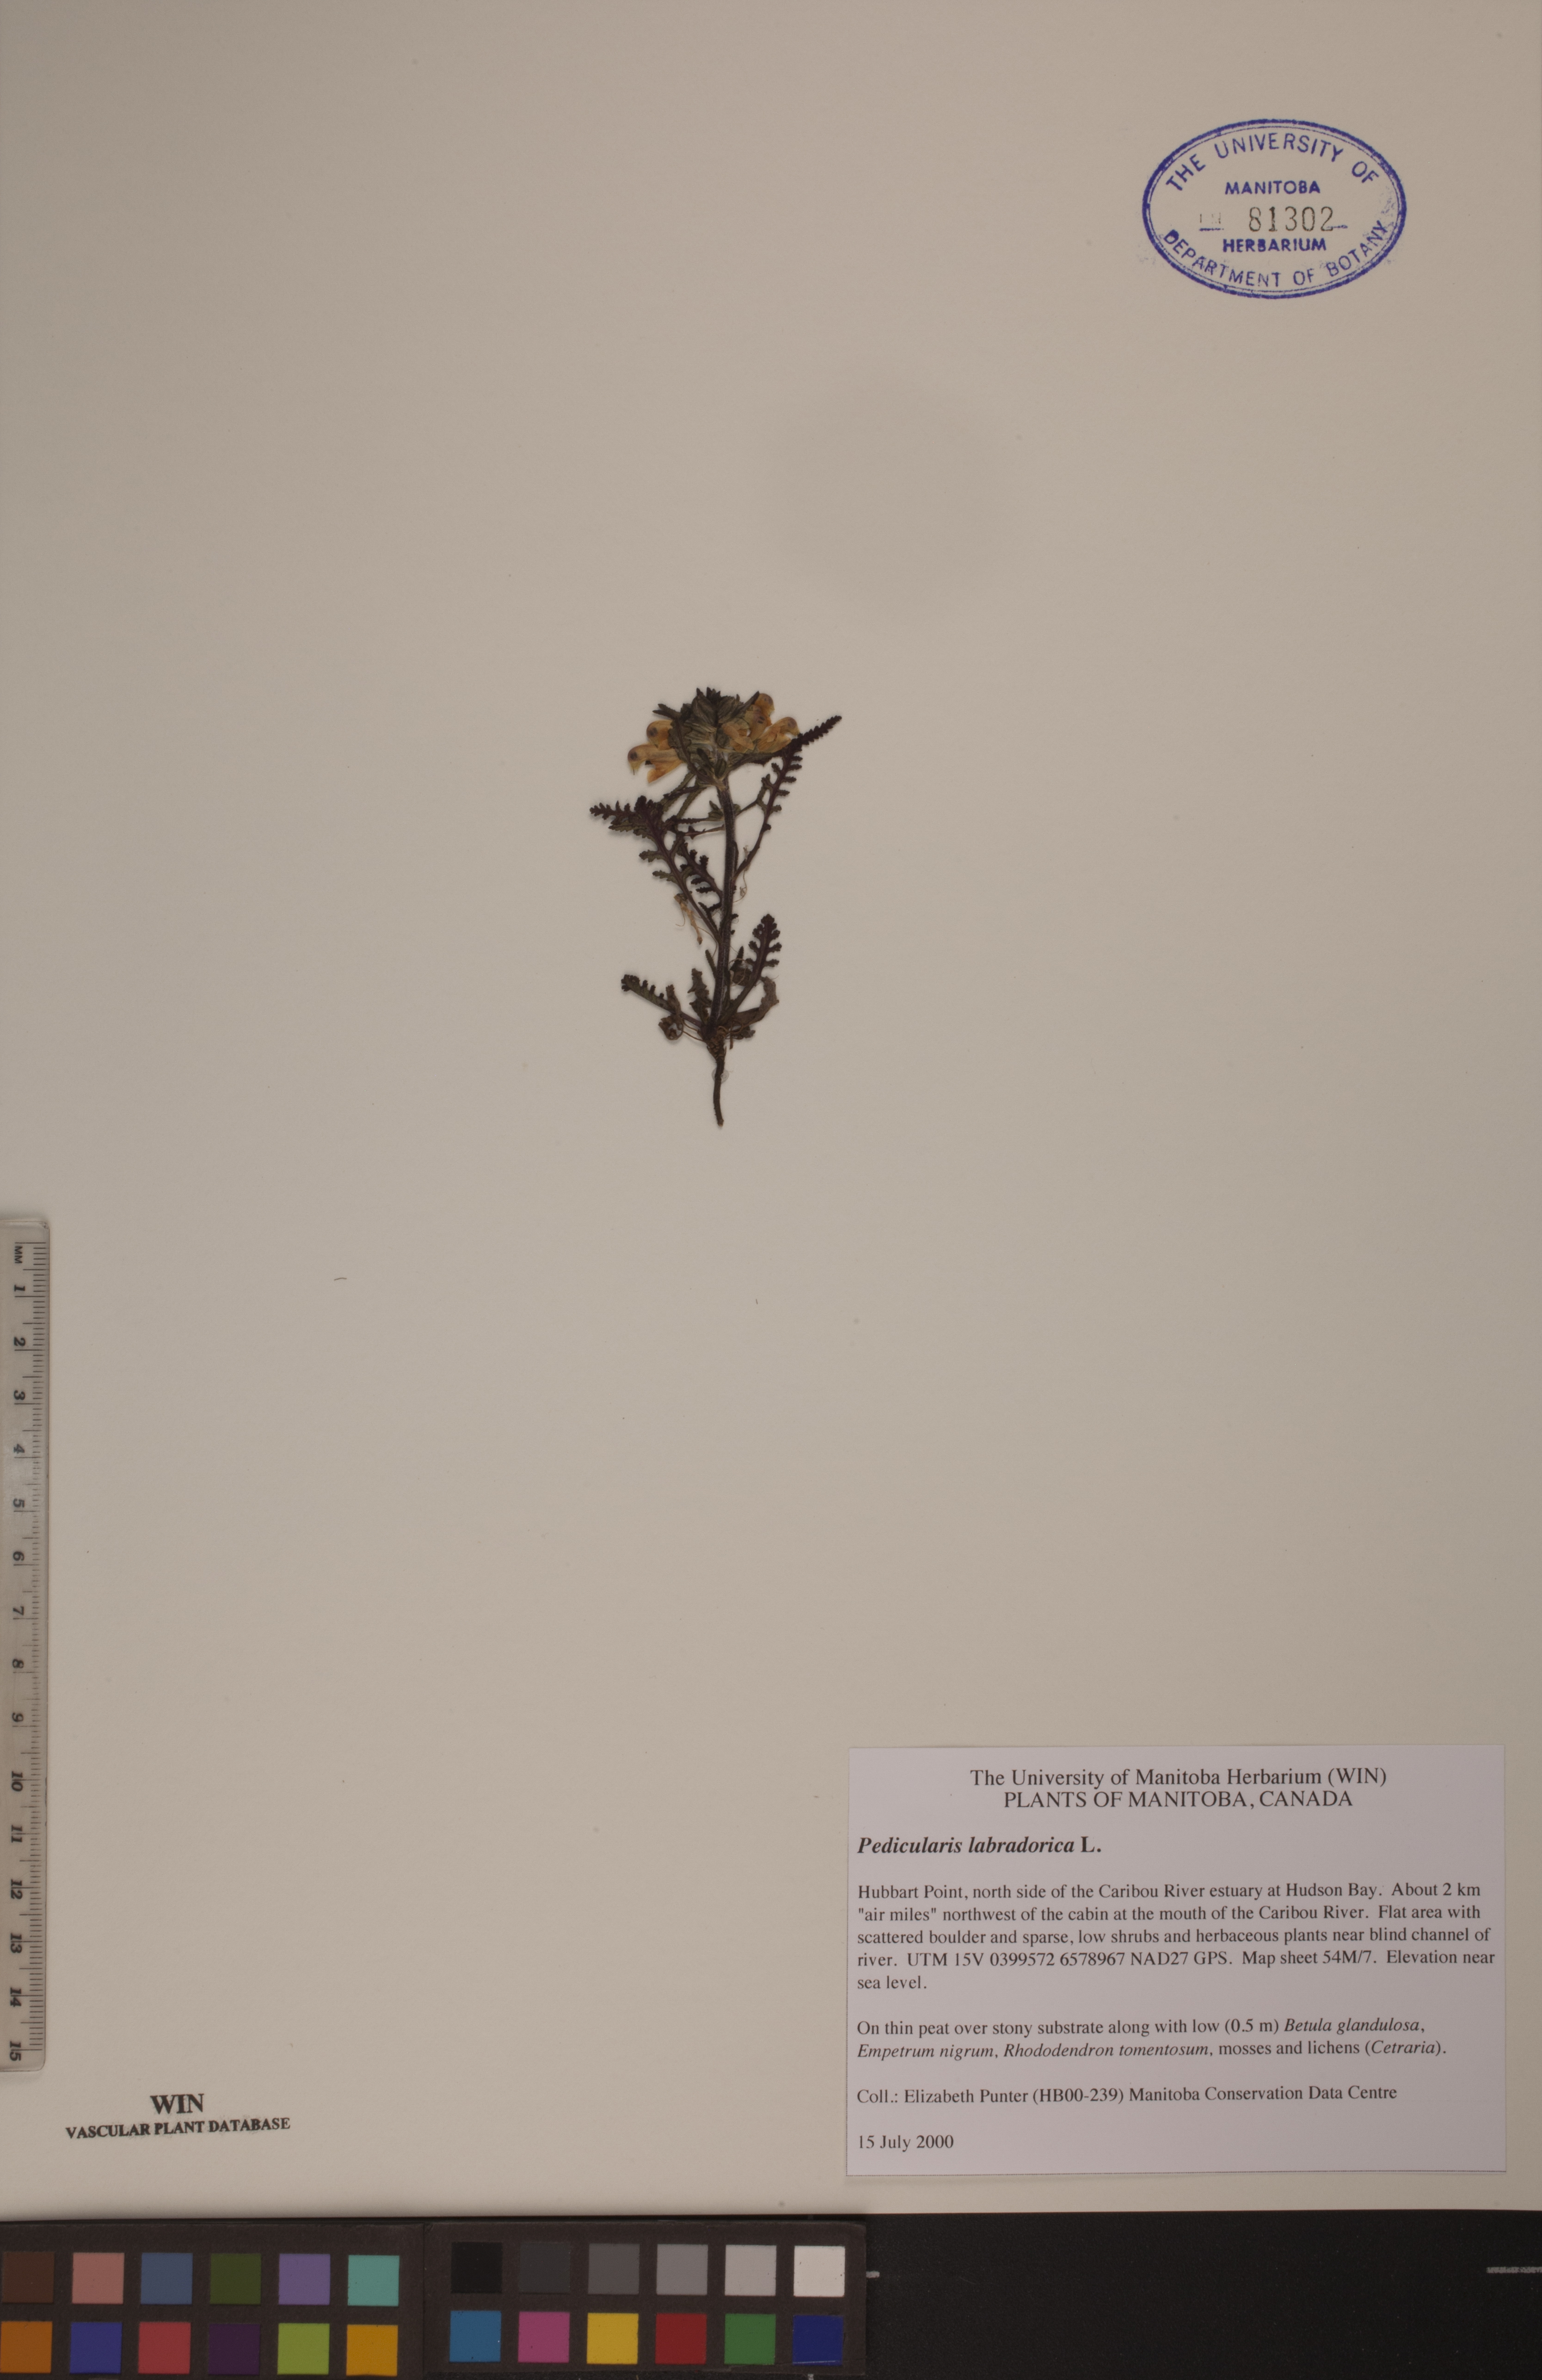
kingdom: Plantae
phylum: Tracheophyta
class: Magnoliopsida
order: Lamiales
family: Orobanchaceae
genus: Pedicularis
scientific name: Pedicularis labradorica
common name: Labrador lousewort
